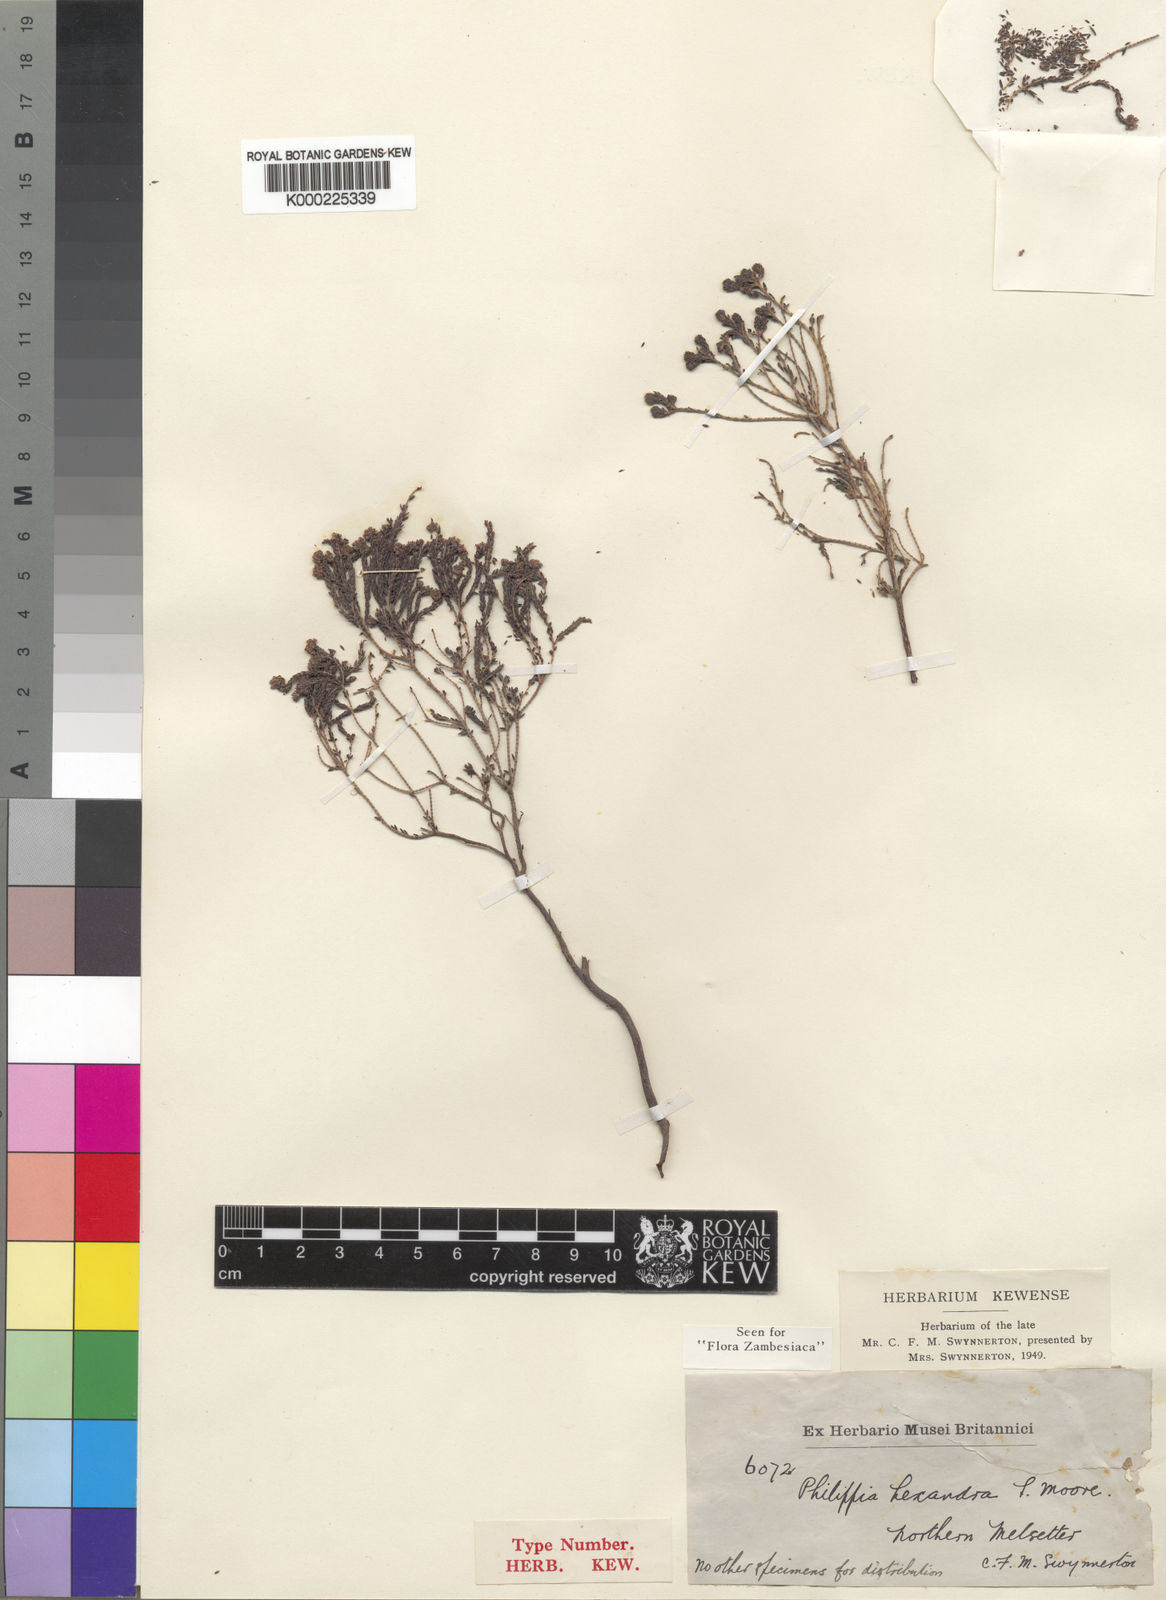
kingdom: Plantae
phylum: Tracheophyta
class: Magnoliopsida
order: Ericales
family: Ericaceae
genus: Erica
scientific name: Erica hexandra
